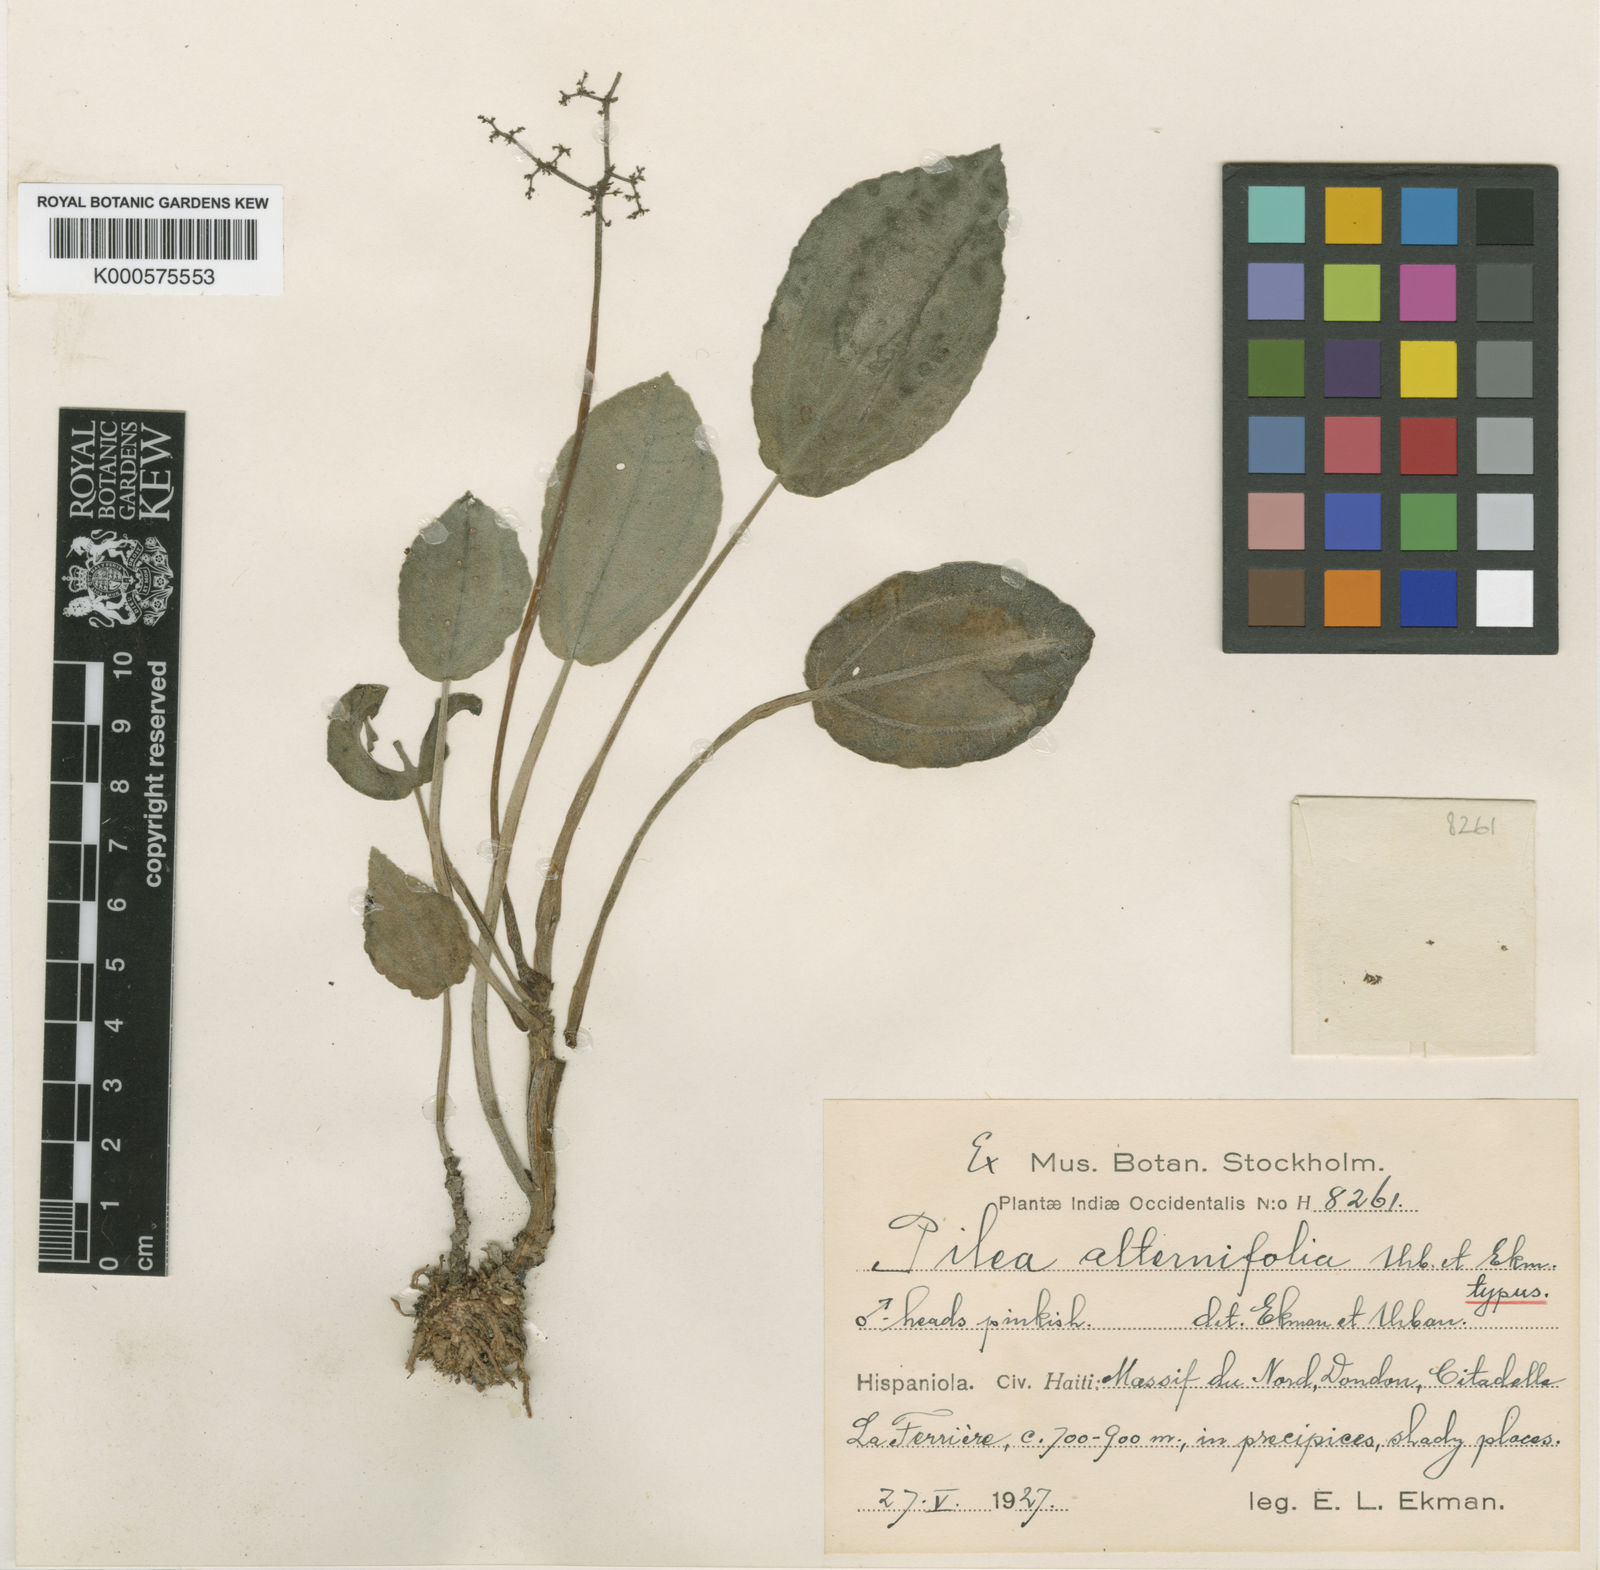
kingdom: Plantae
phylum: Tracheophyta
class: Magnoliopsida
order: Rosales
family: Urticaceae
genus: Pilea
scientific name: Pilea alternifolia
